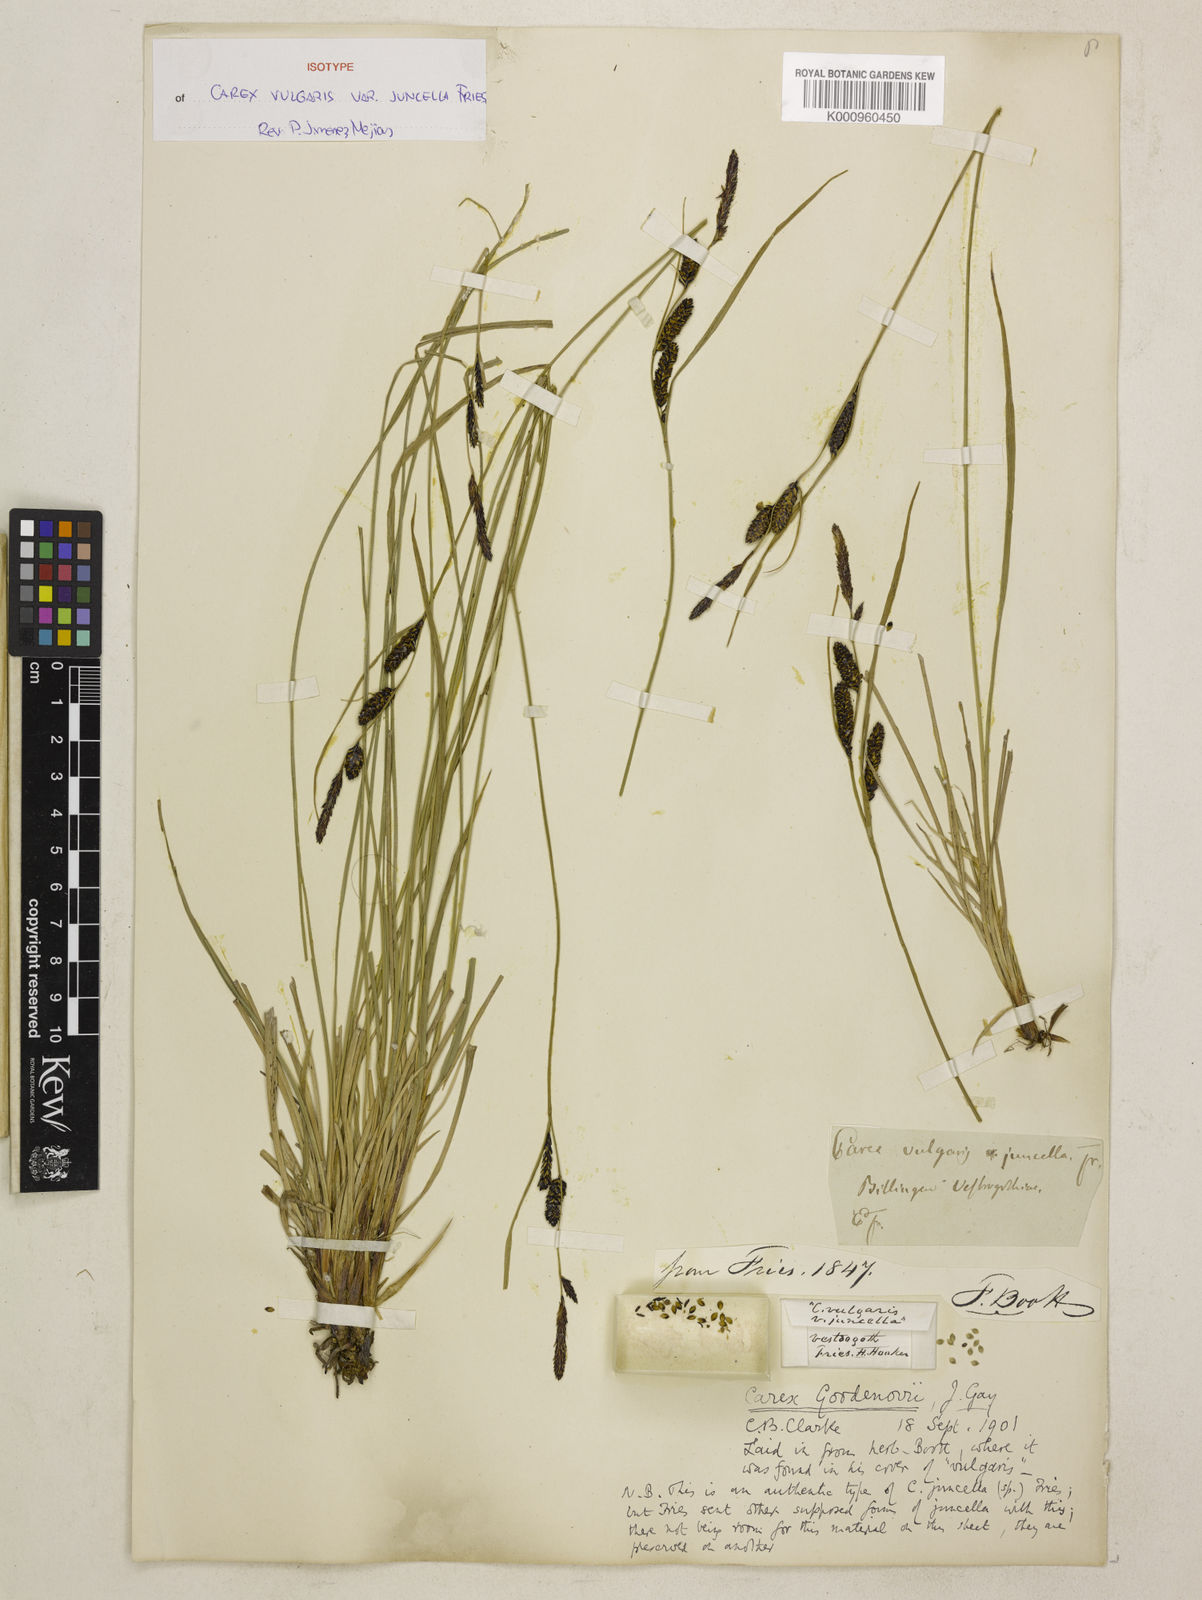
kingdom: Plantae
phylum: Tracheophyta
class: Liliopsida
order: Poales
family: Cyperaceae
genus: Carex
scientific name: Carex nigra
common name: Common sedge
